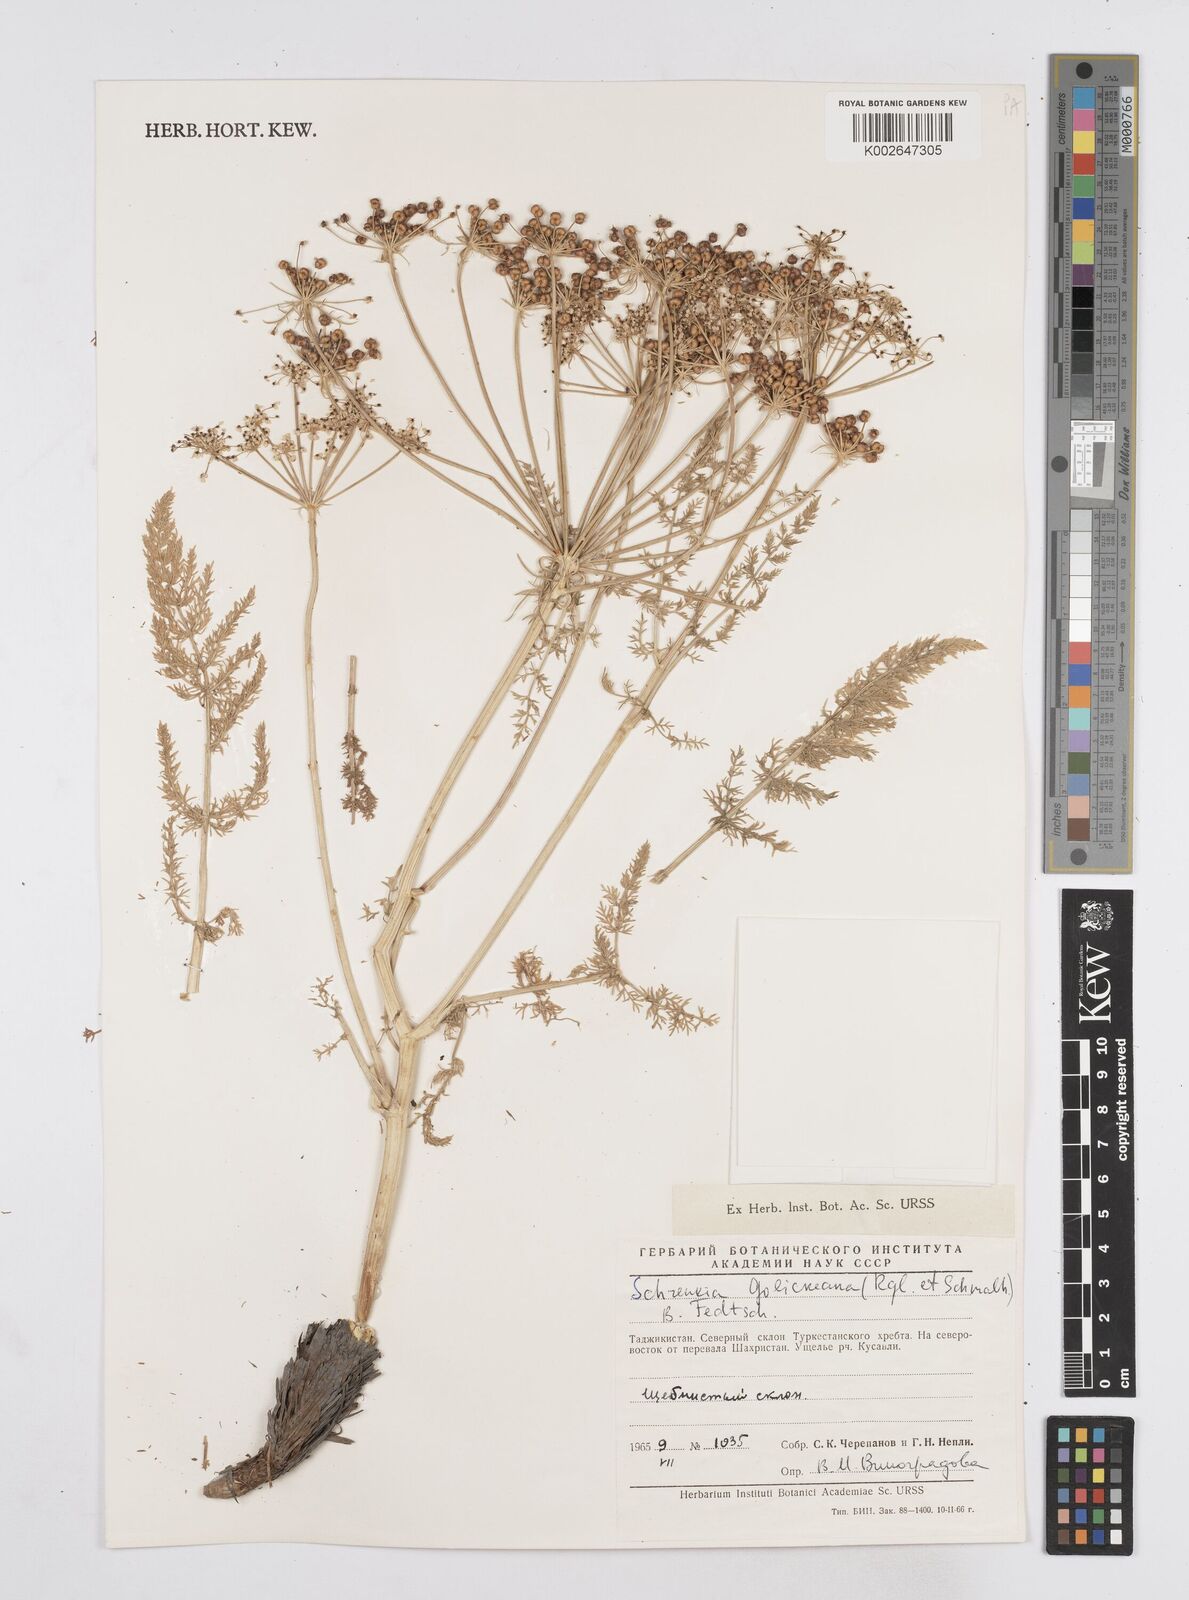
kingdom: Plantae
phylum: Tracheophyta
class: Magnoliopsida
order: Apiales
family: Apiaceae
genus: Schrenkia
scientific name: Schrenkia golickeana
